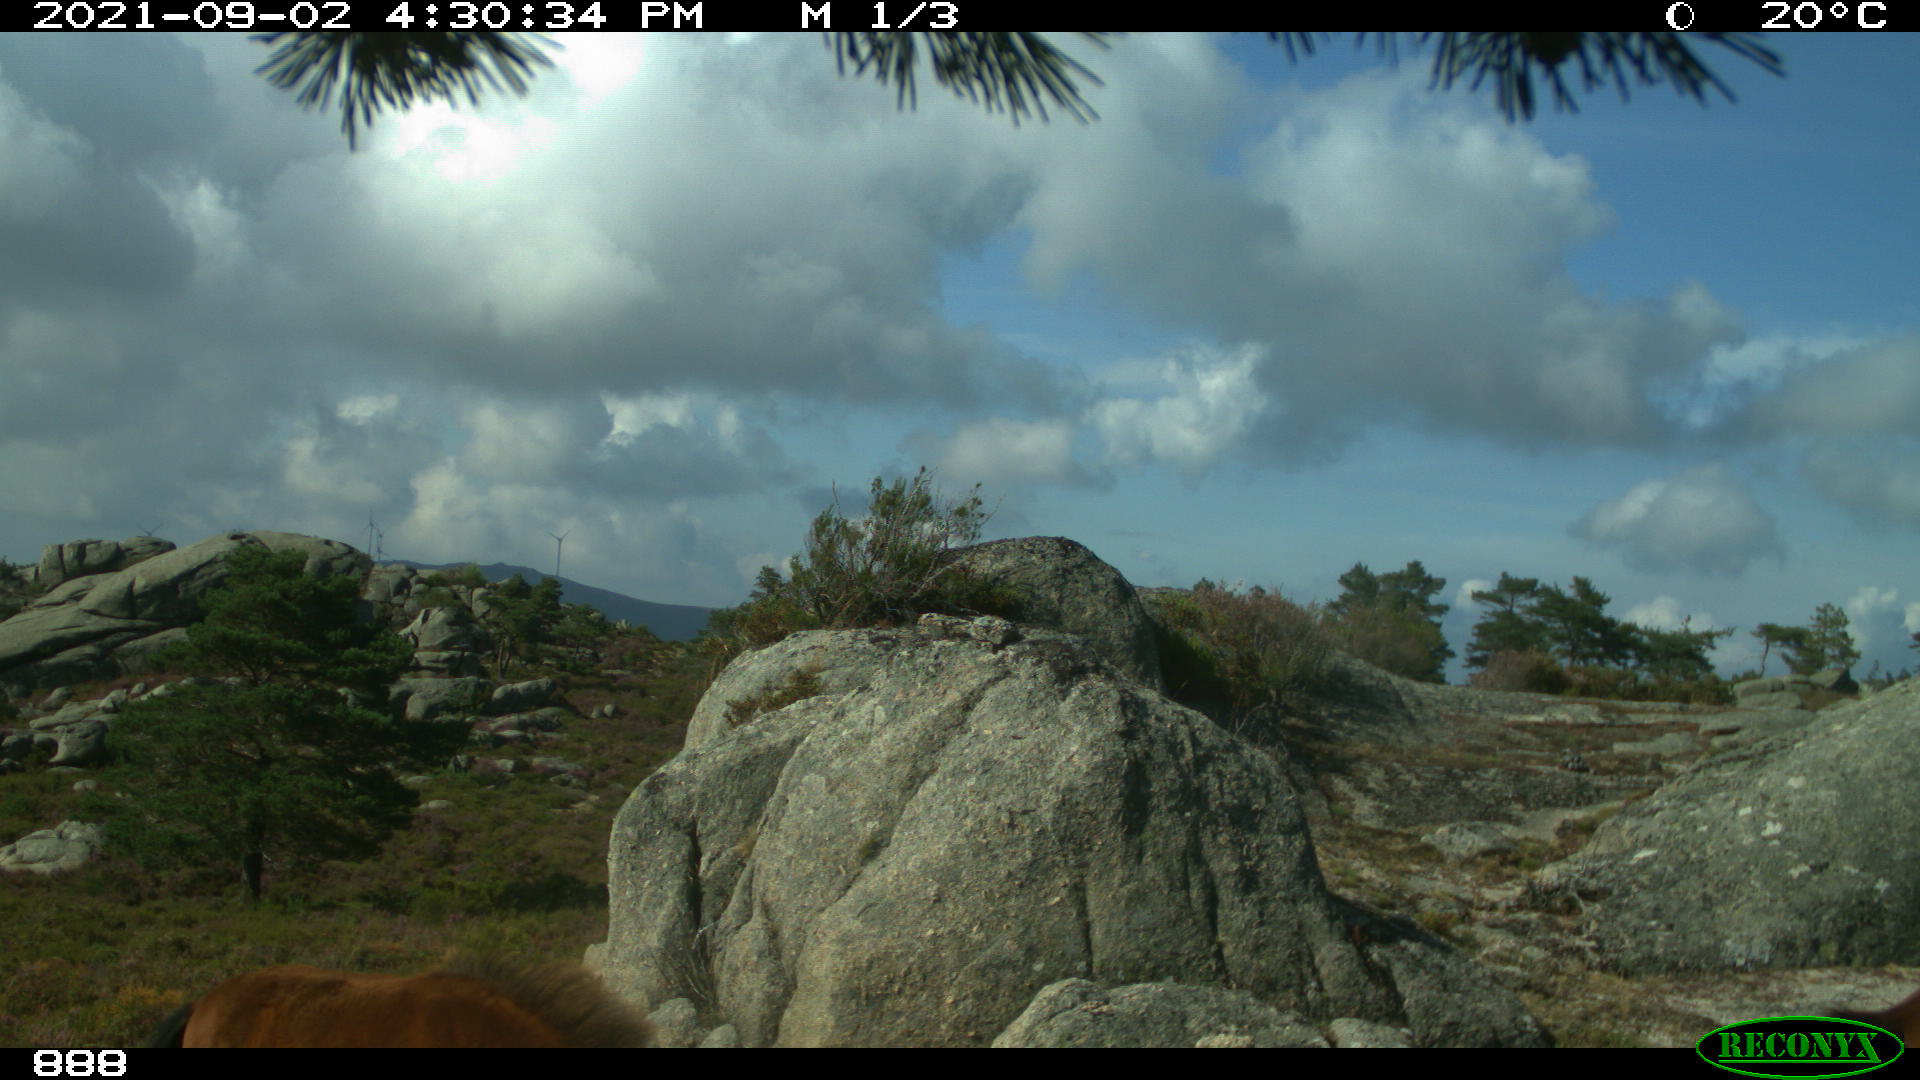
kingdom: Animalia
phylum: Chordata
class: Mammalia
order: Perissodactyla
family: Equidae
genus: Equus
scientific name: Equus caballus
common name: Horse
